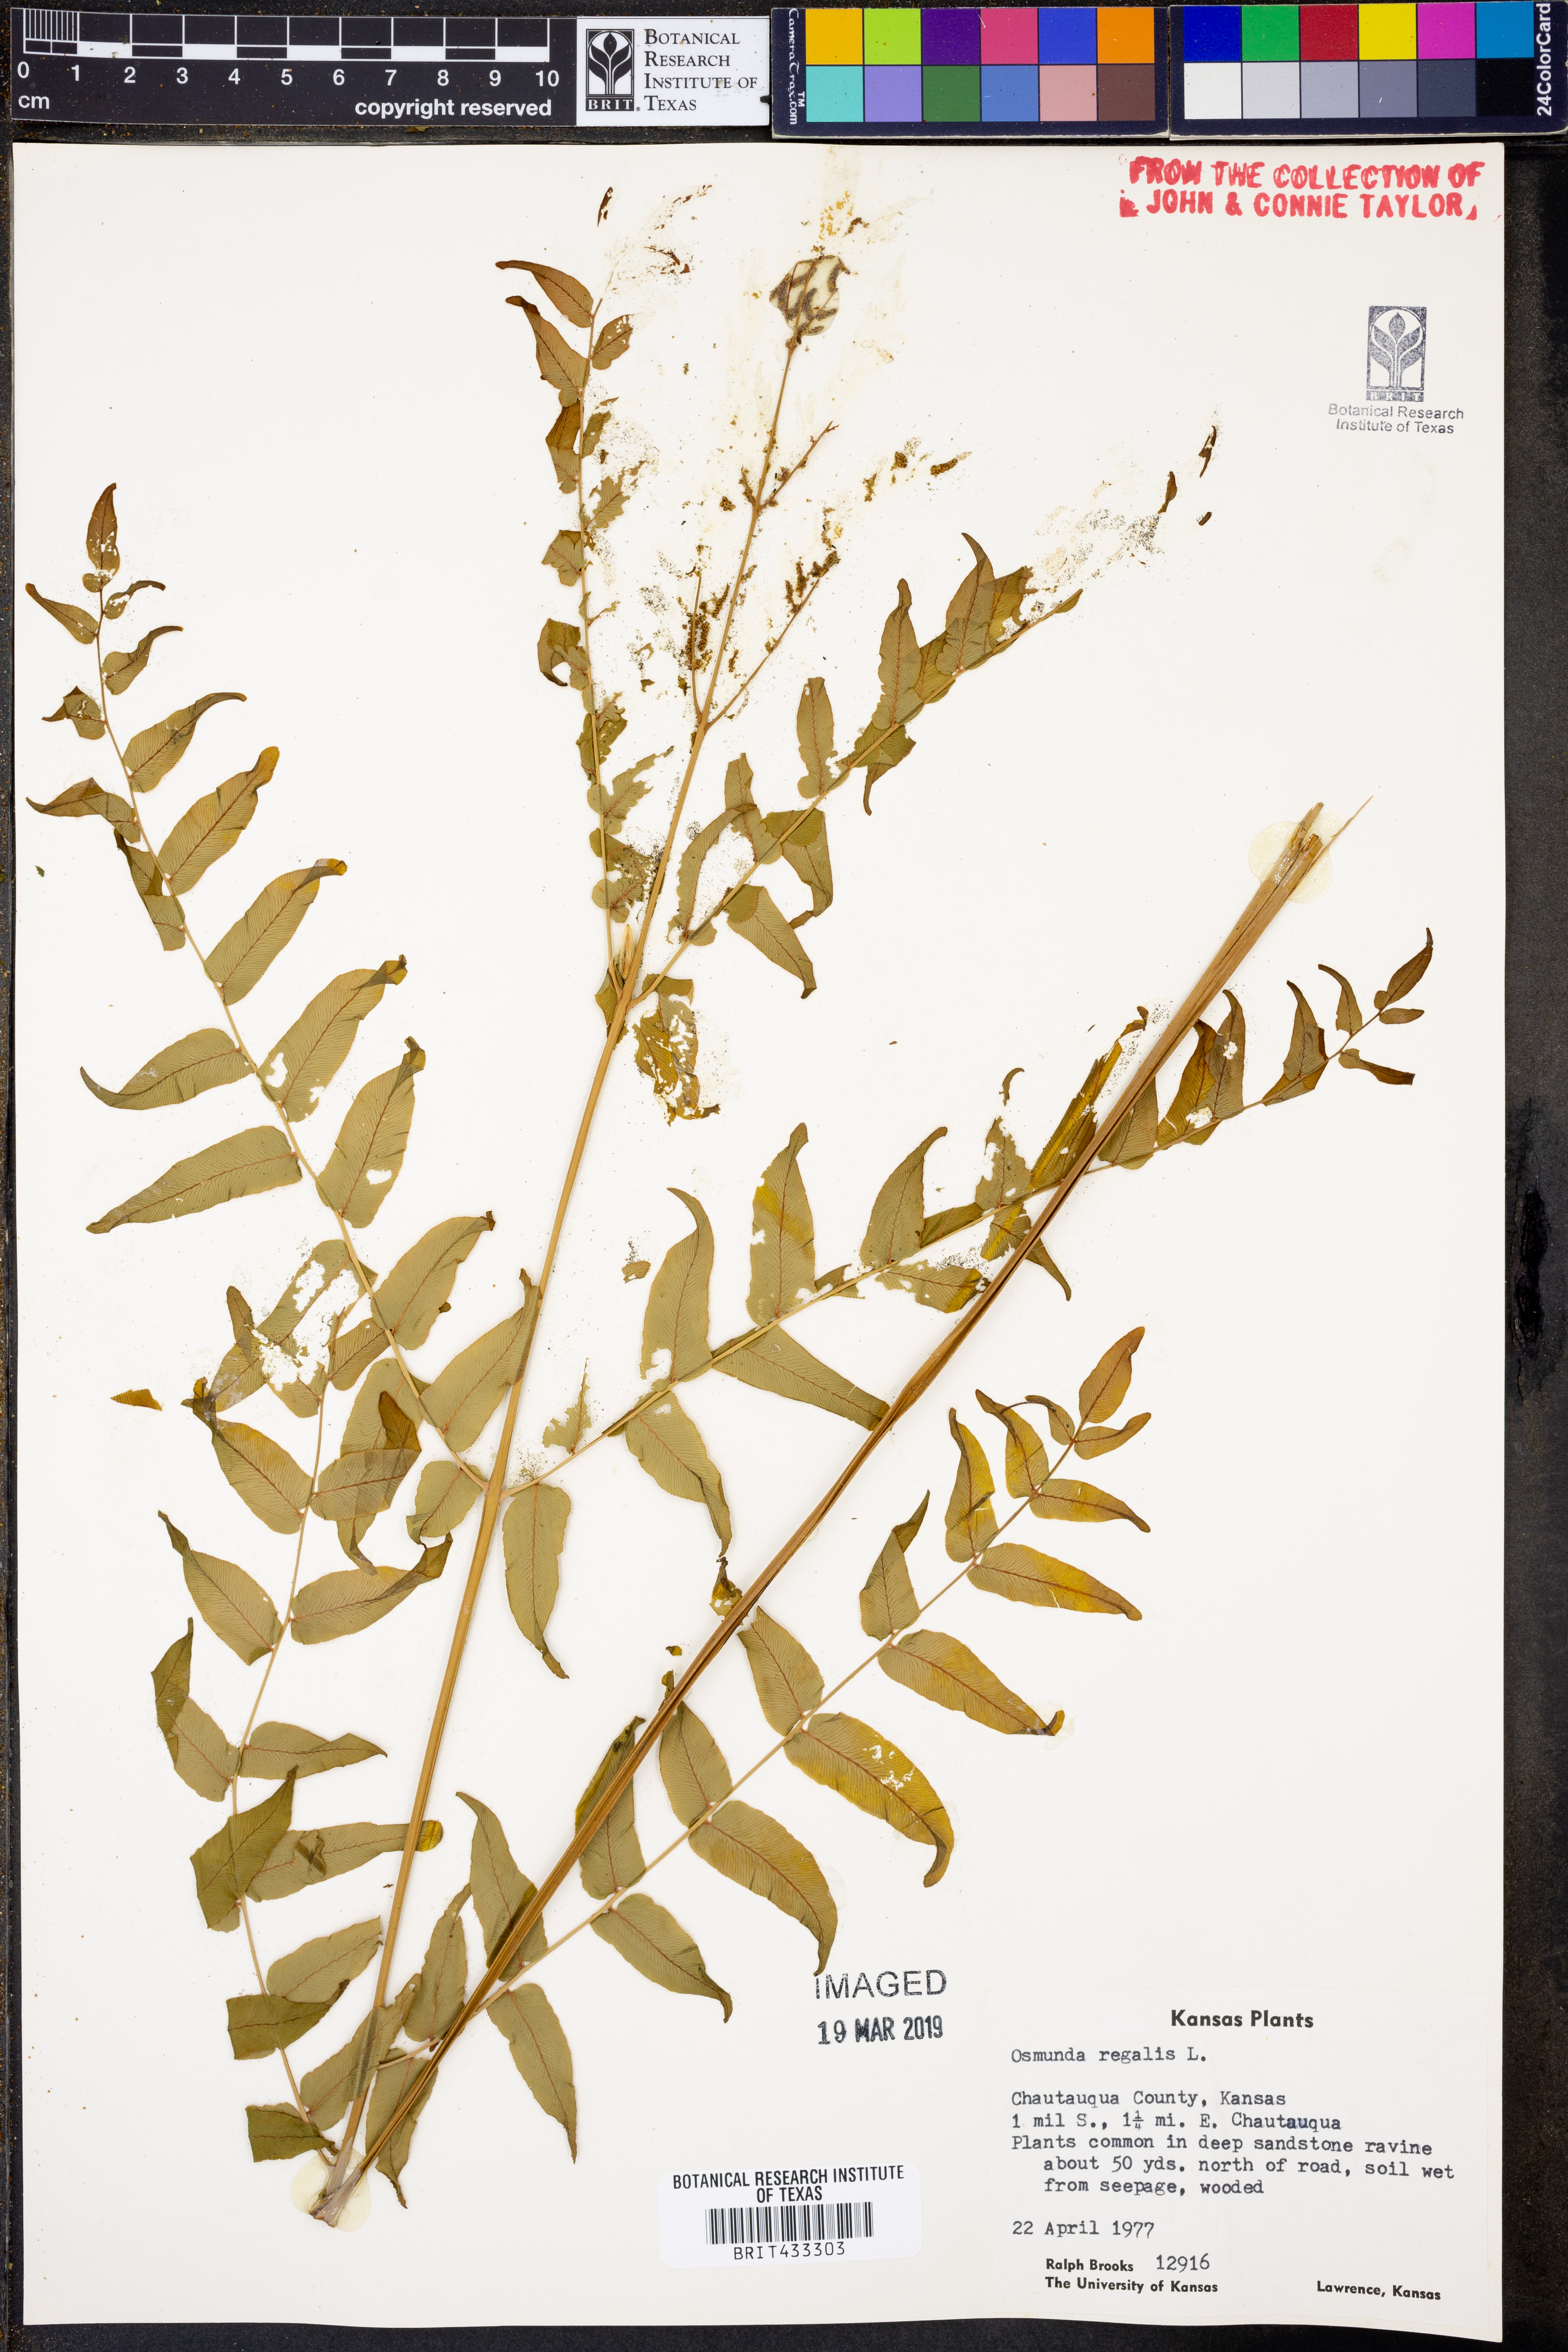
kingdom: Plantae
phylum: Tracheophyta
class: Polypodiopsida
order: Osmundales
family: Osmundaceae
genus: Osmunda
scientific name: Osmunda regalis
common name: Royal fern
